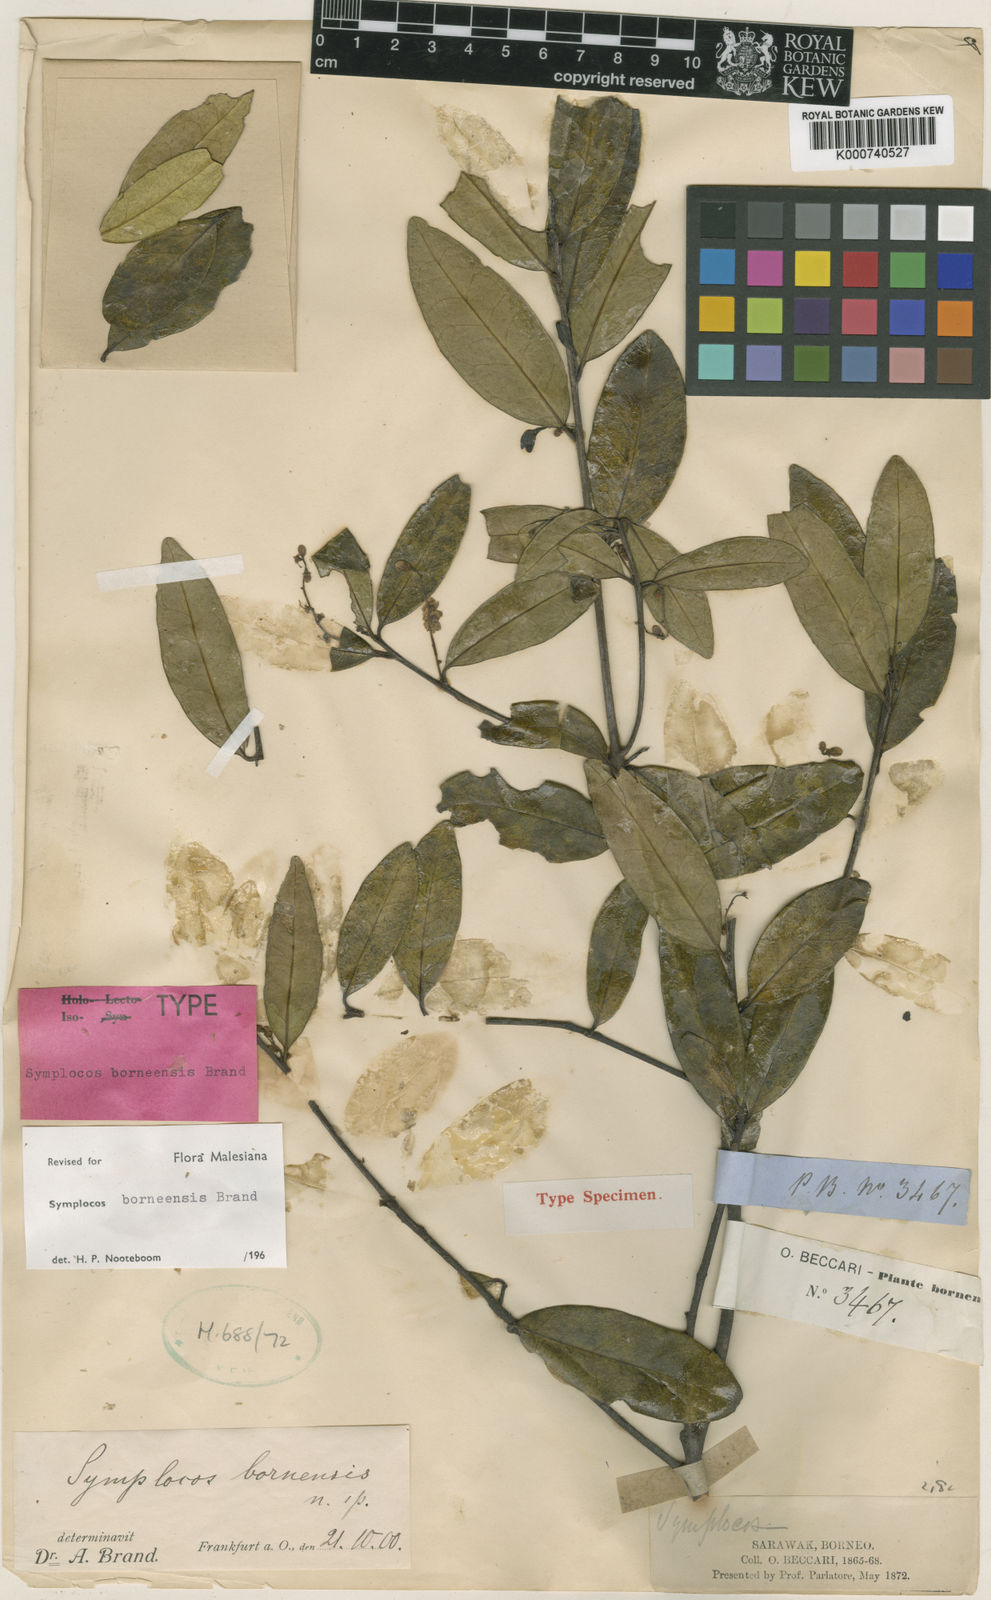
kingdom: Plantae
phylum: Tracheophyta
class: Magnoliopsida
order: Ericales
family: Symplocaceae
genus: Symplocos
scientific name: Symplocos boninensis
